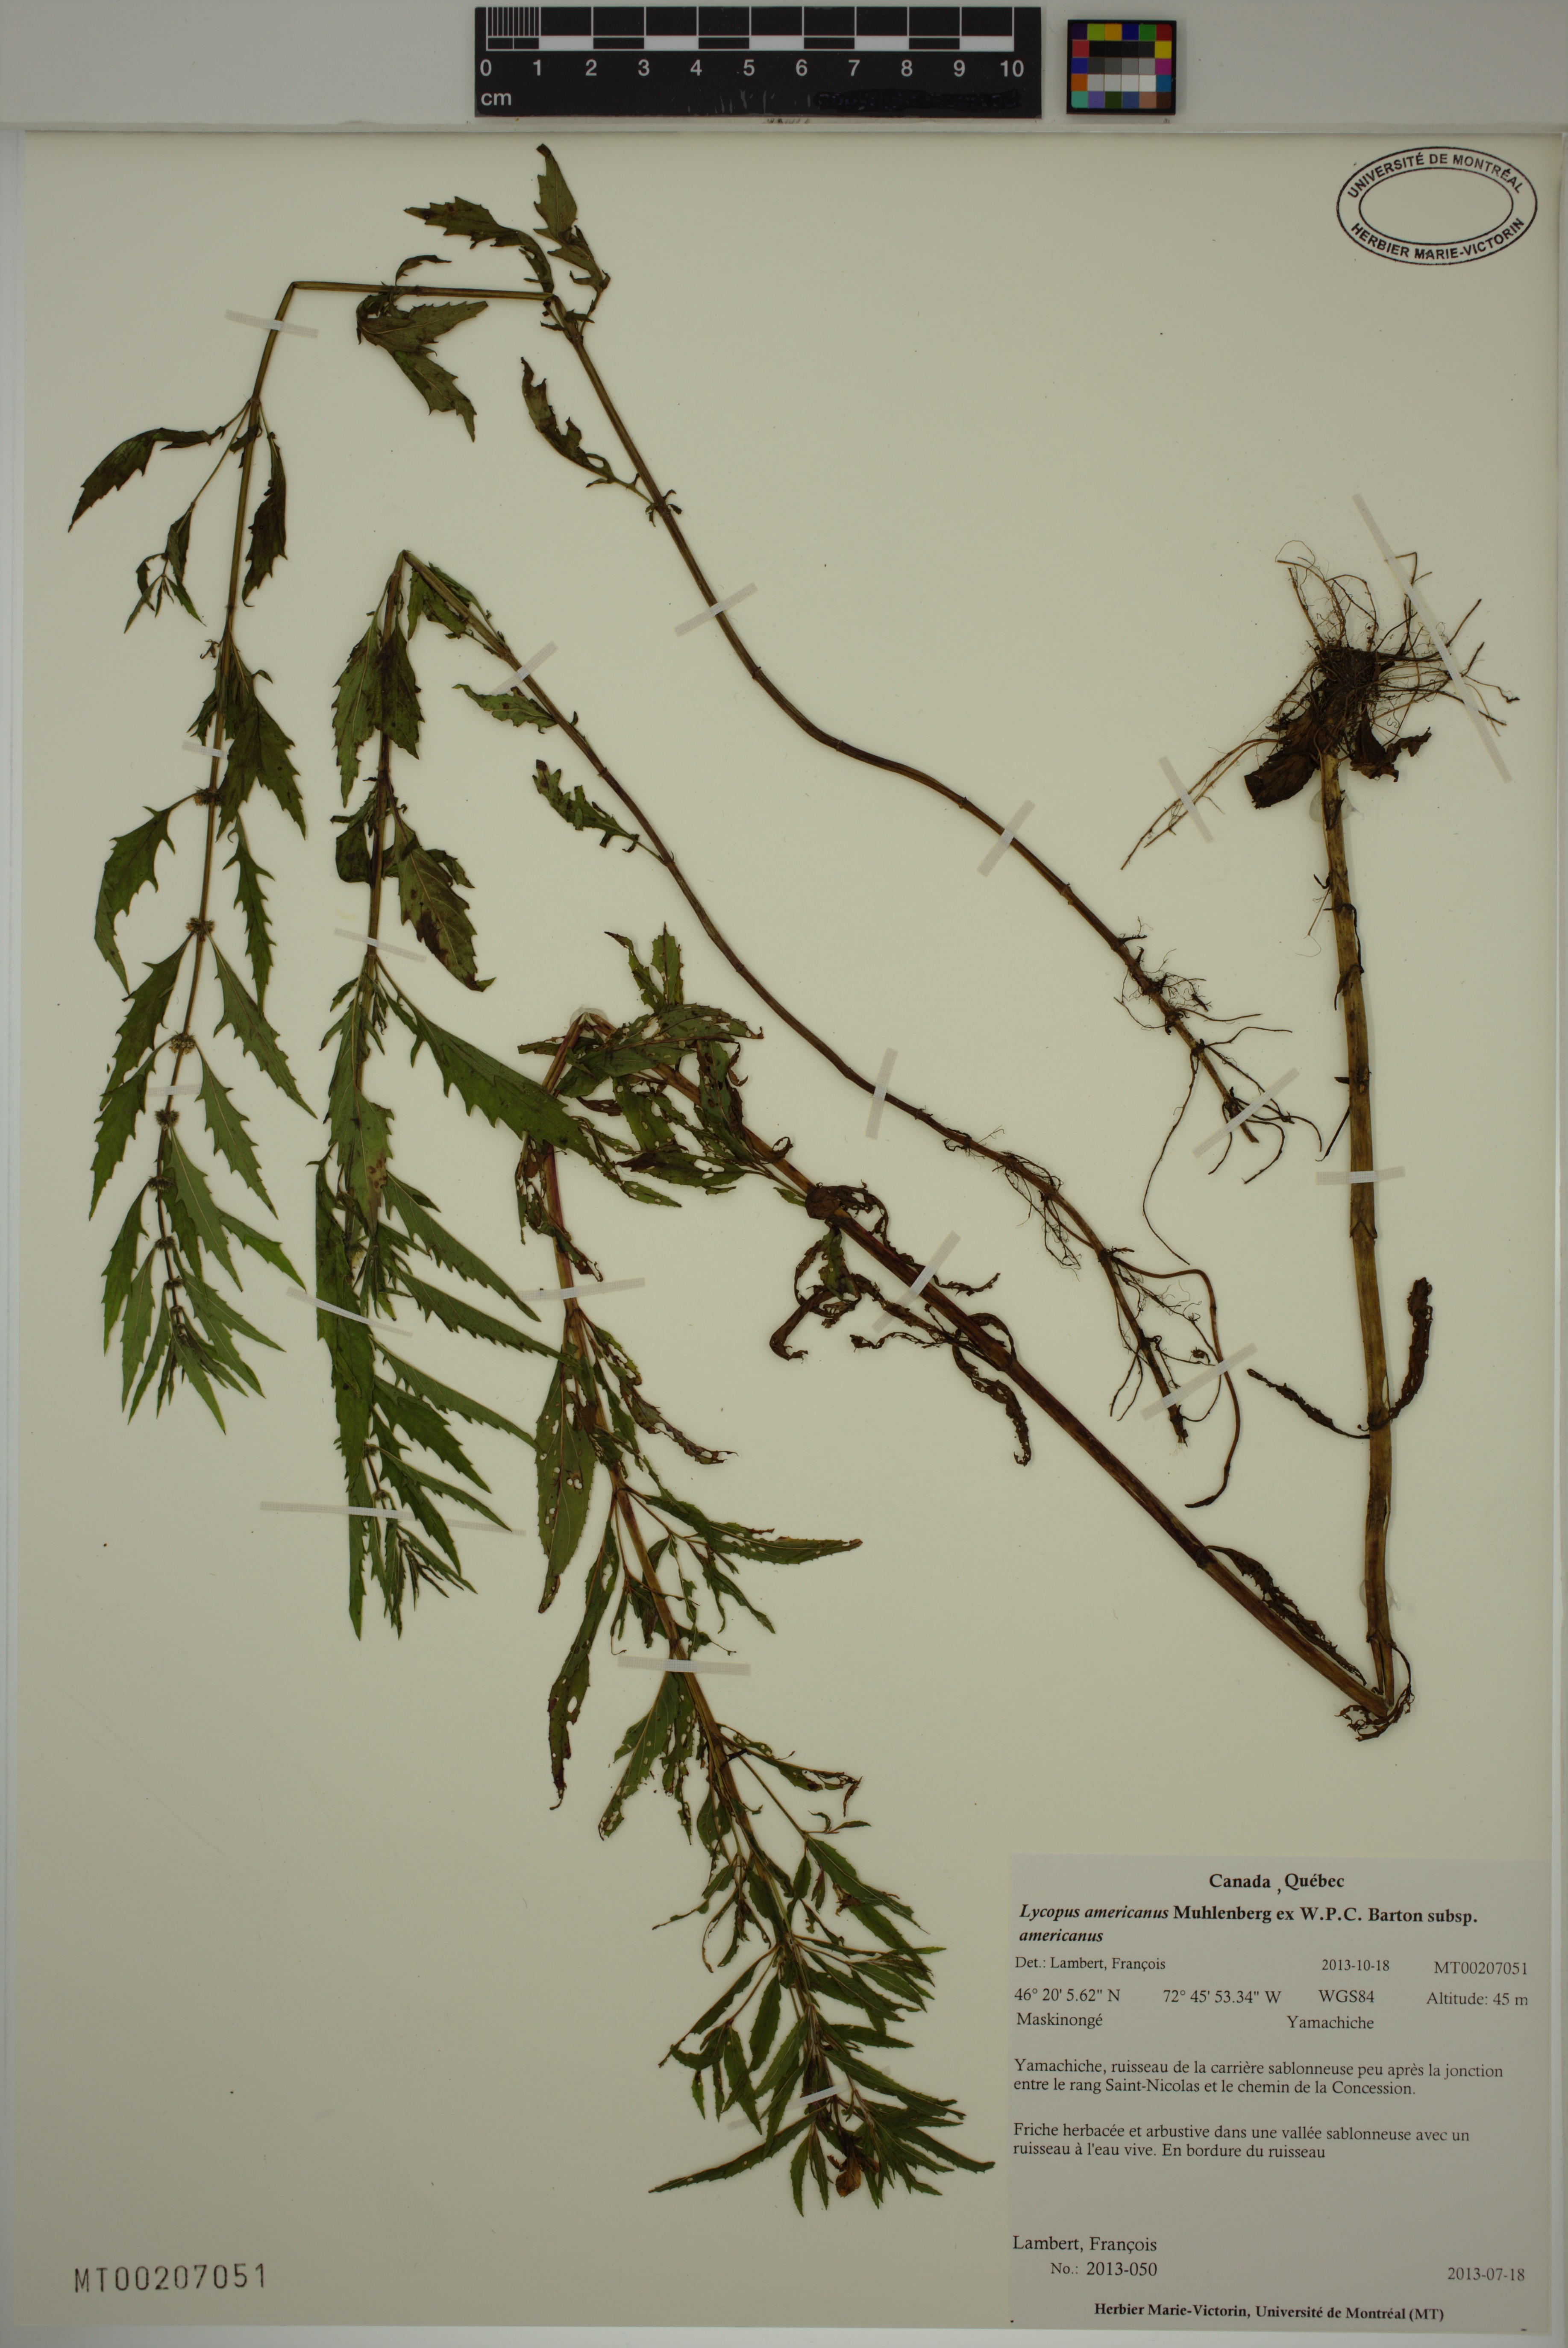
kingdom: Plantae
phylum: Tracheophyta
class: Magnoliopsida
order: Lamiales
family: Lamiaceae
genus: Lycopus
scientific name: Lycopus americanus
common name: American bugleweed
